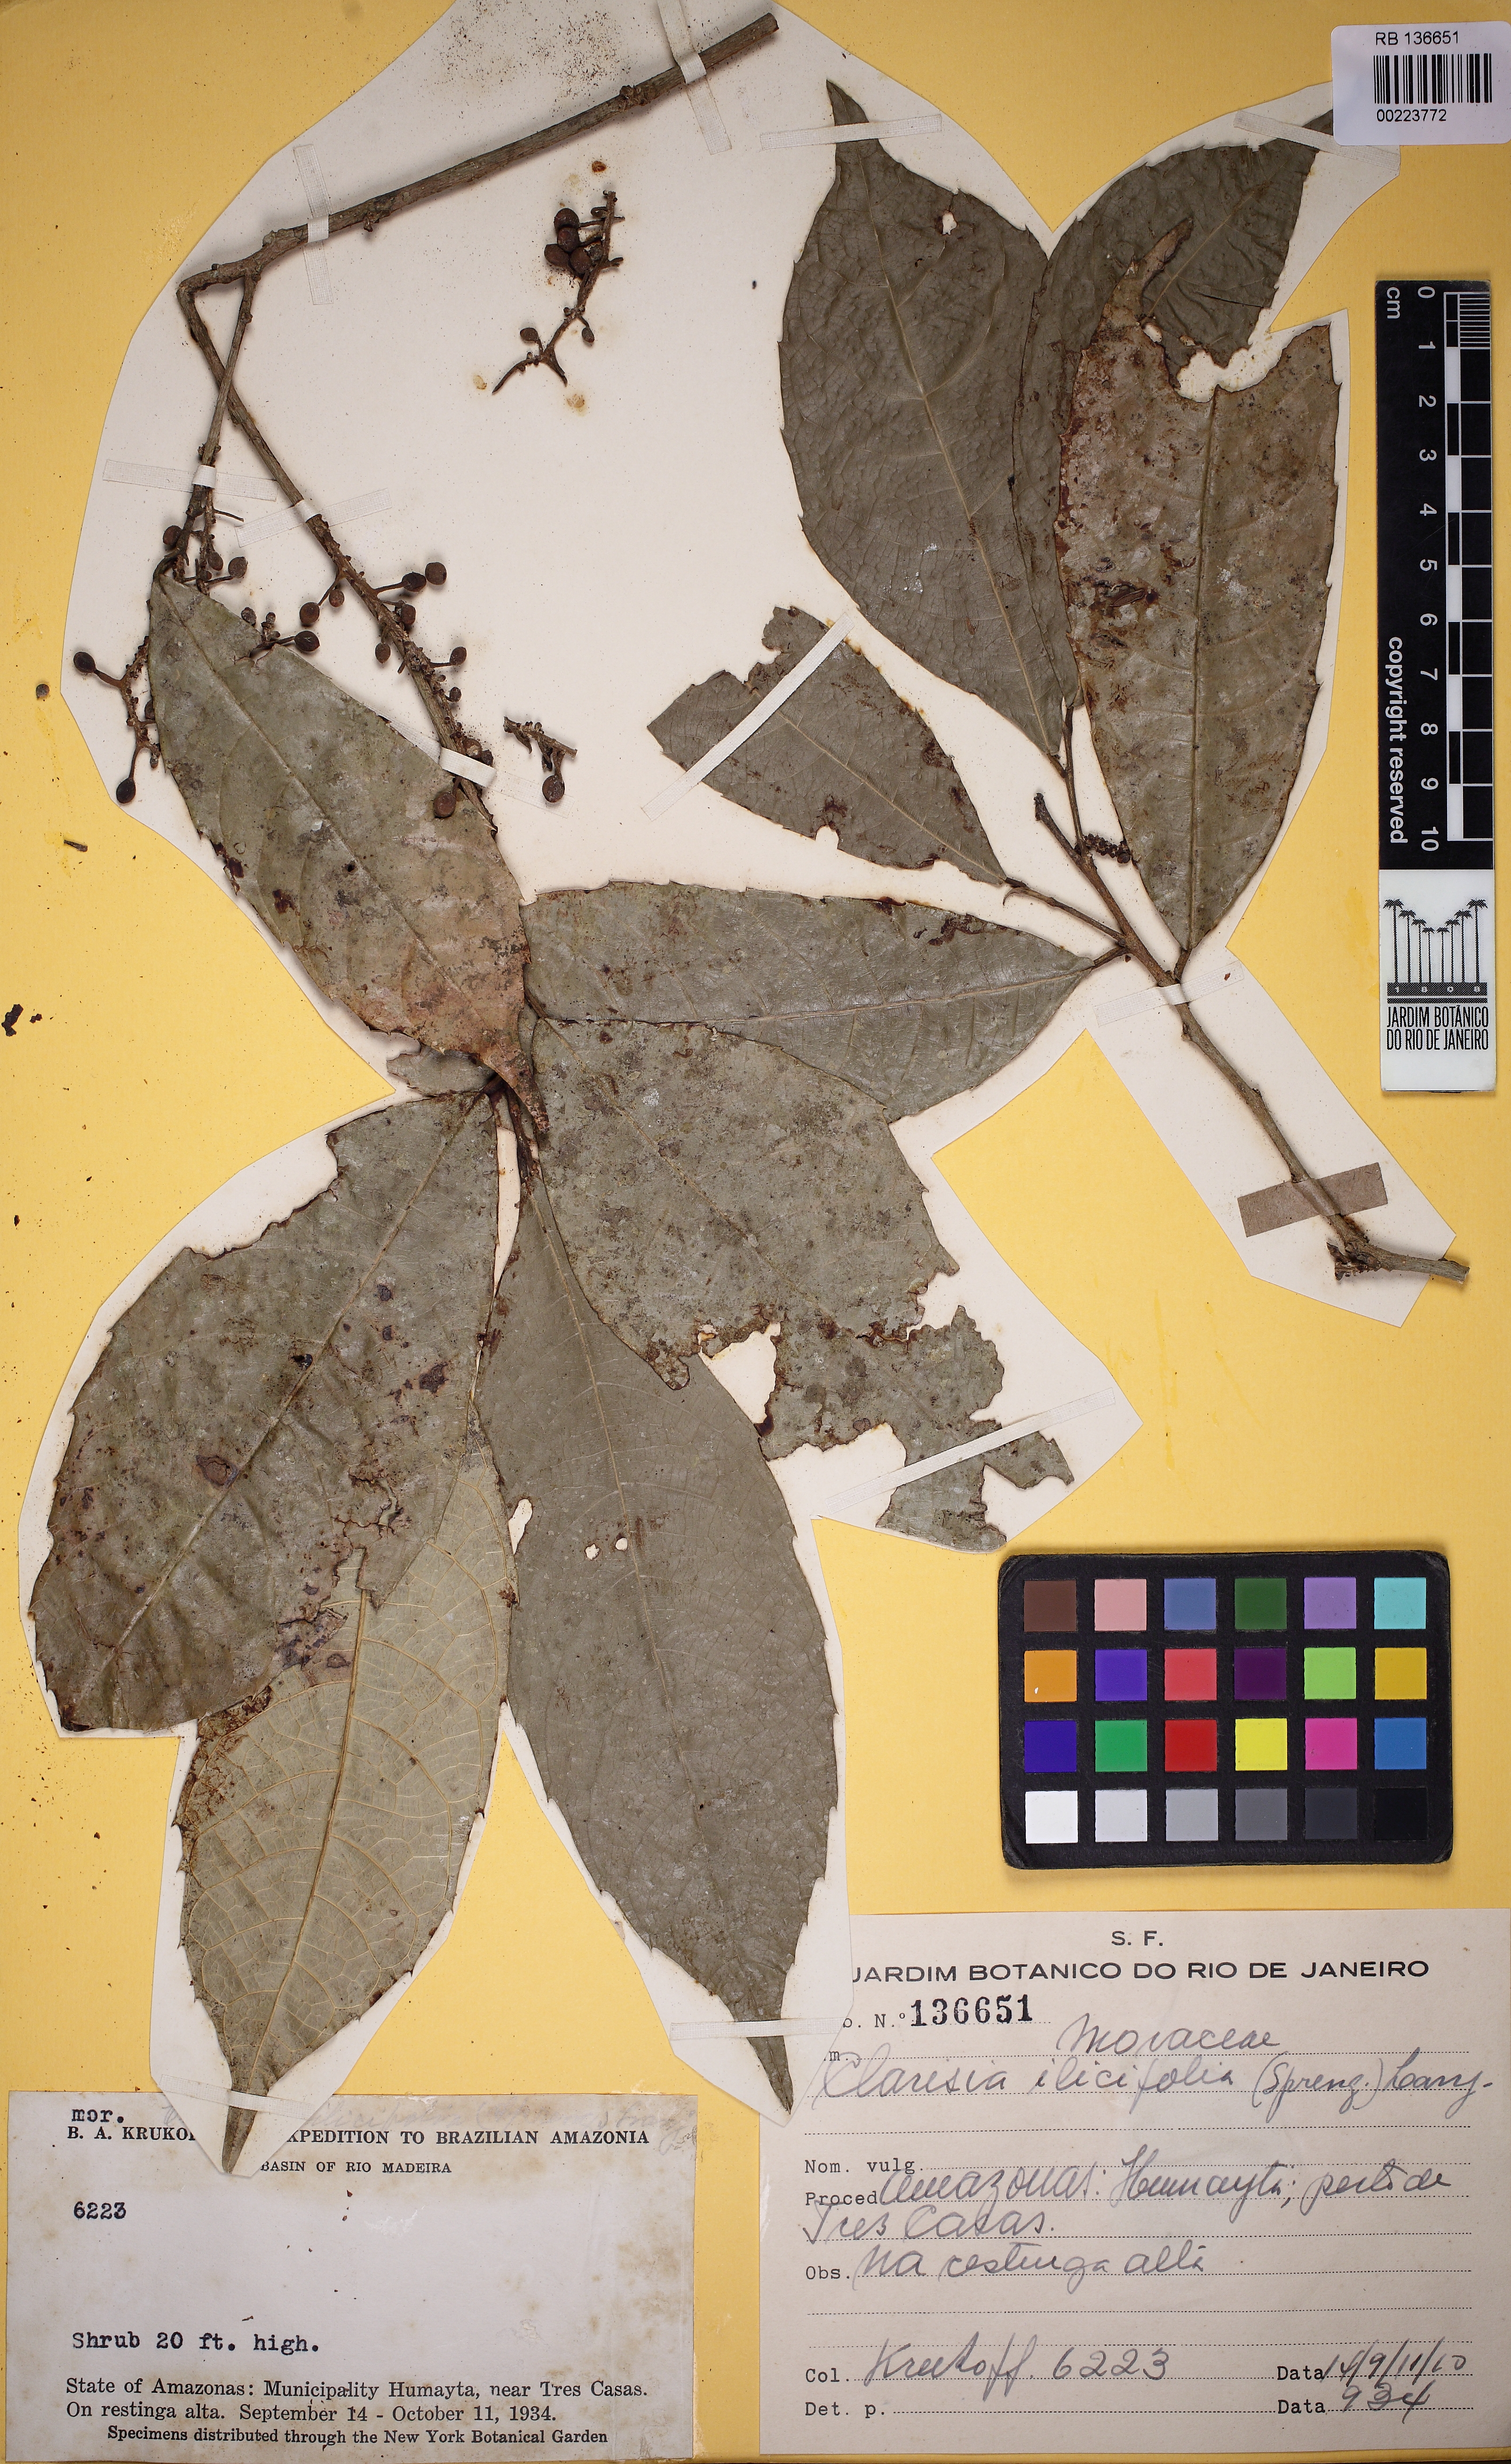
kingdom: Plantae
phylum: Tracheophyta
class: Magnoliopsida
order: Rosales
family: Moraceae
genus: Clarisia
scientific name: Clarisia ilicifolia
